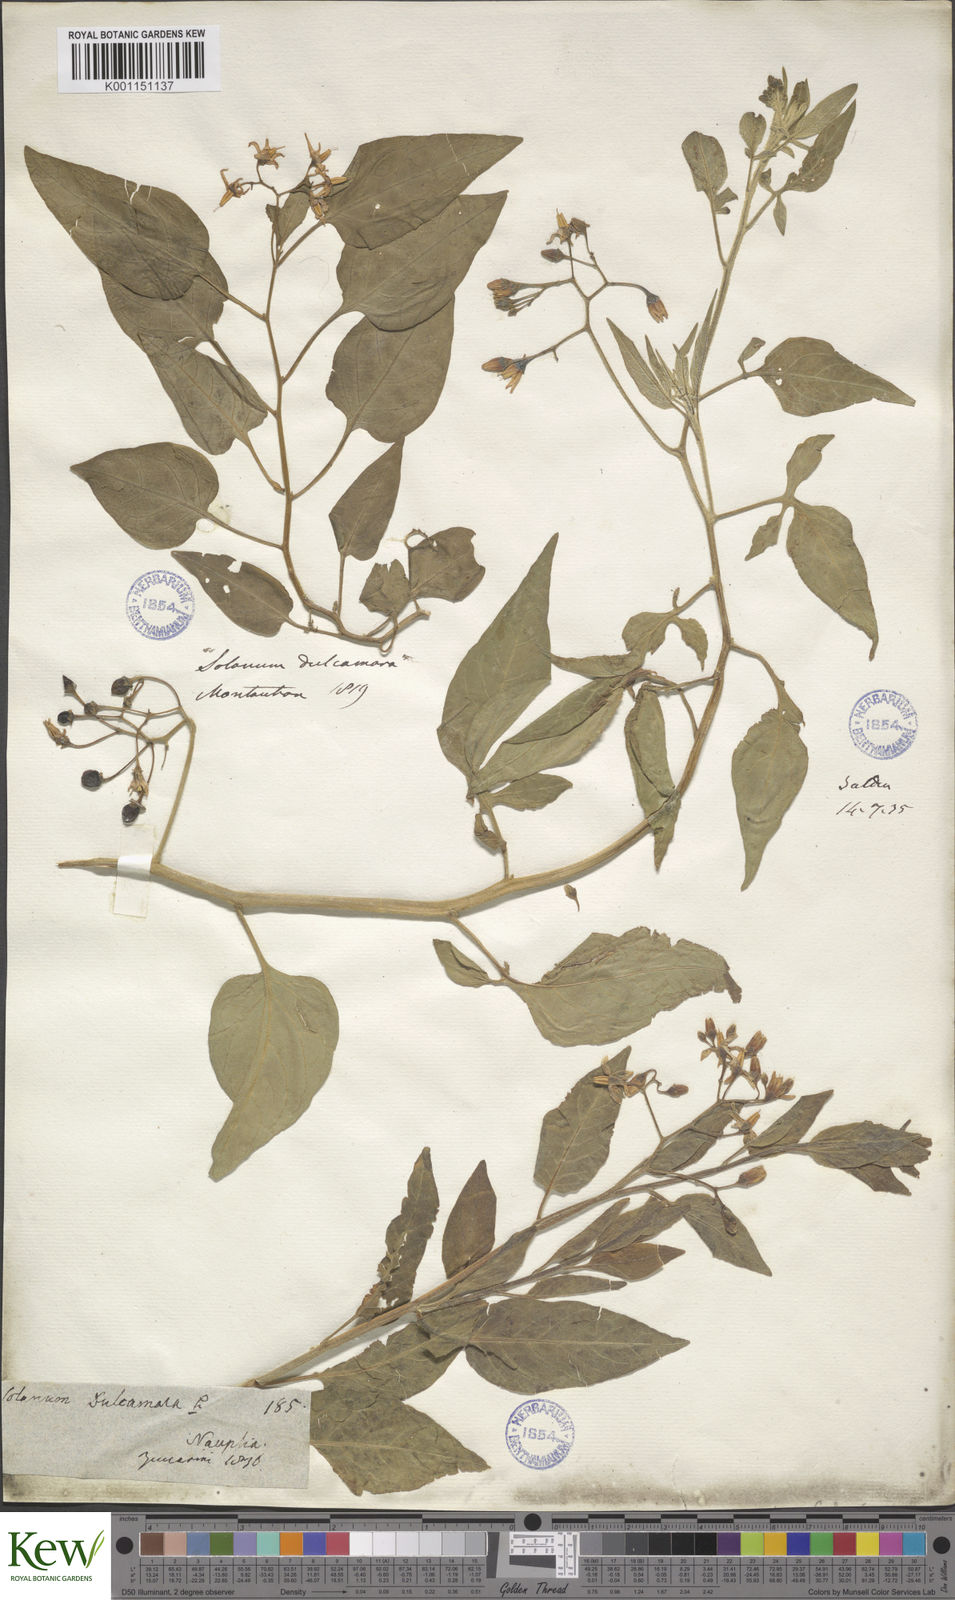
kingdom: Plantae
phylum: Tracheophyta
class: Magnoliopsida
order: Solanales
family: Solanaceae
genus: Solanum
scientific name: Solanum dulcamara
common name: Climbing nightshade
